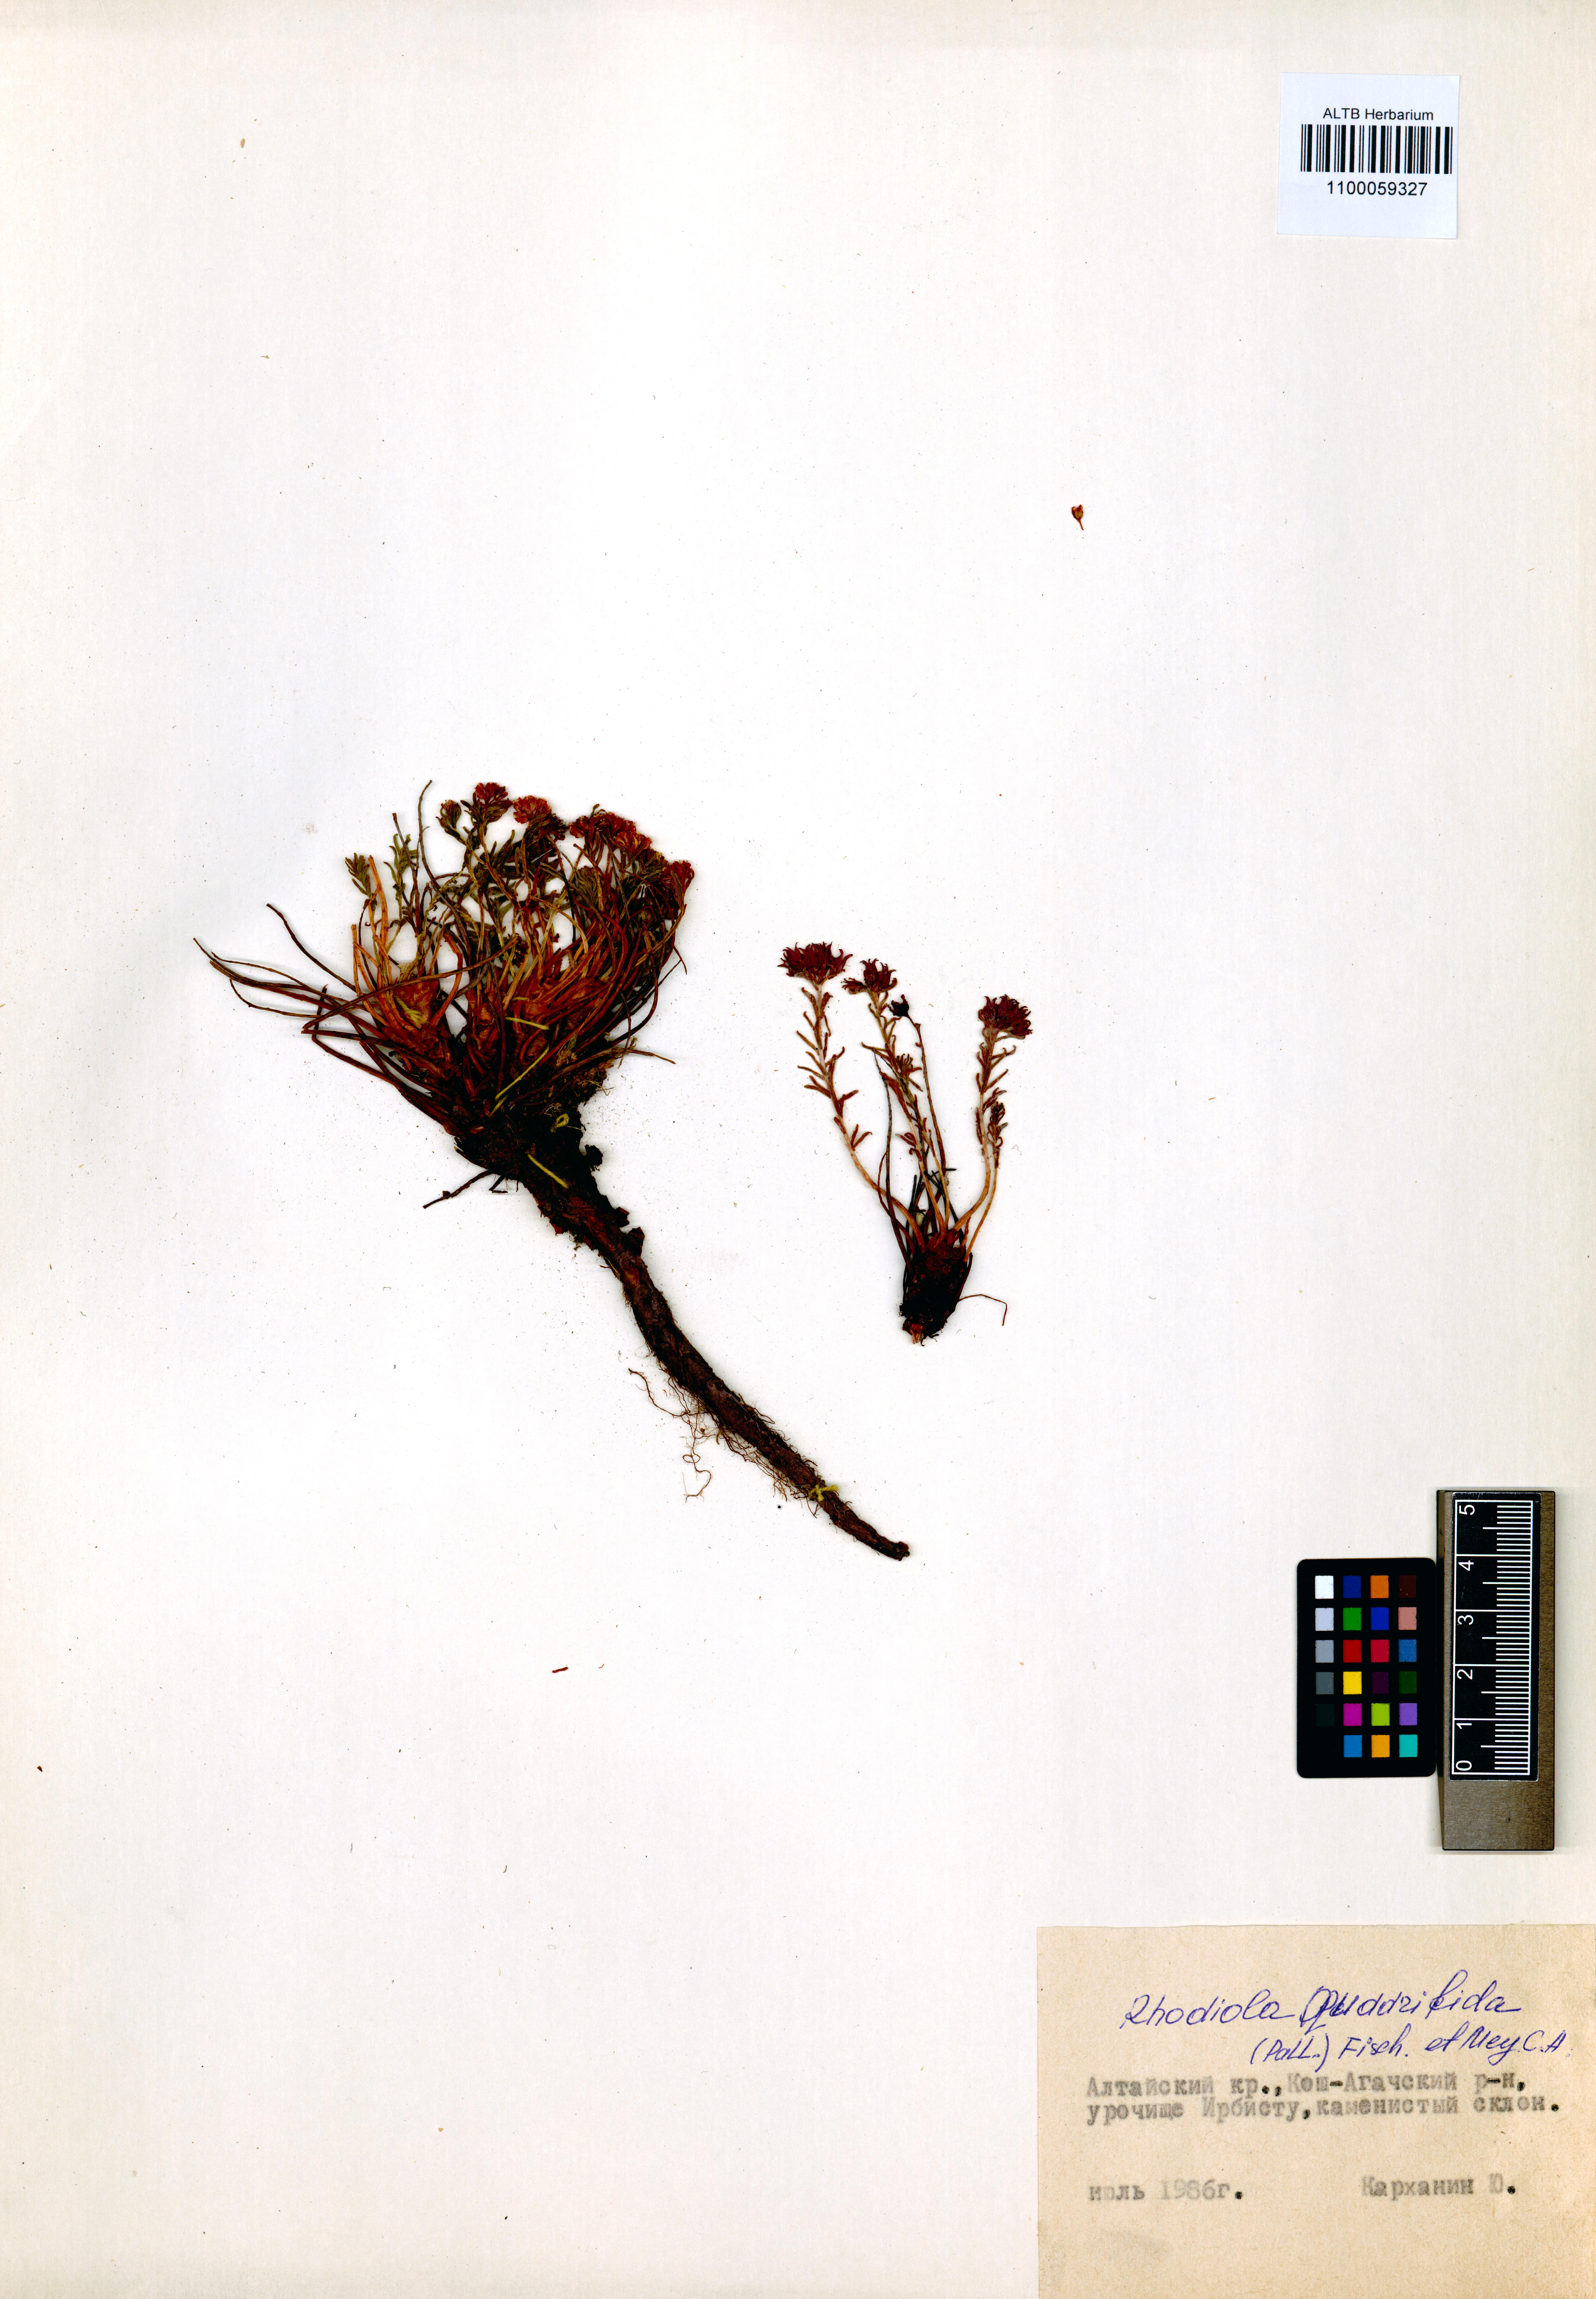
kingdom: Plantae
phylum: Tracheophyta
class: Magnoliopsida
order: Saxifragales
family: Crassulaceae
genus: Rhodiola
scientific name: Rhodiola quadrifida
